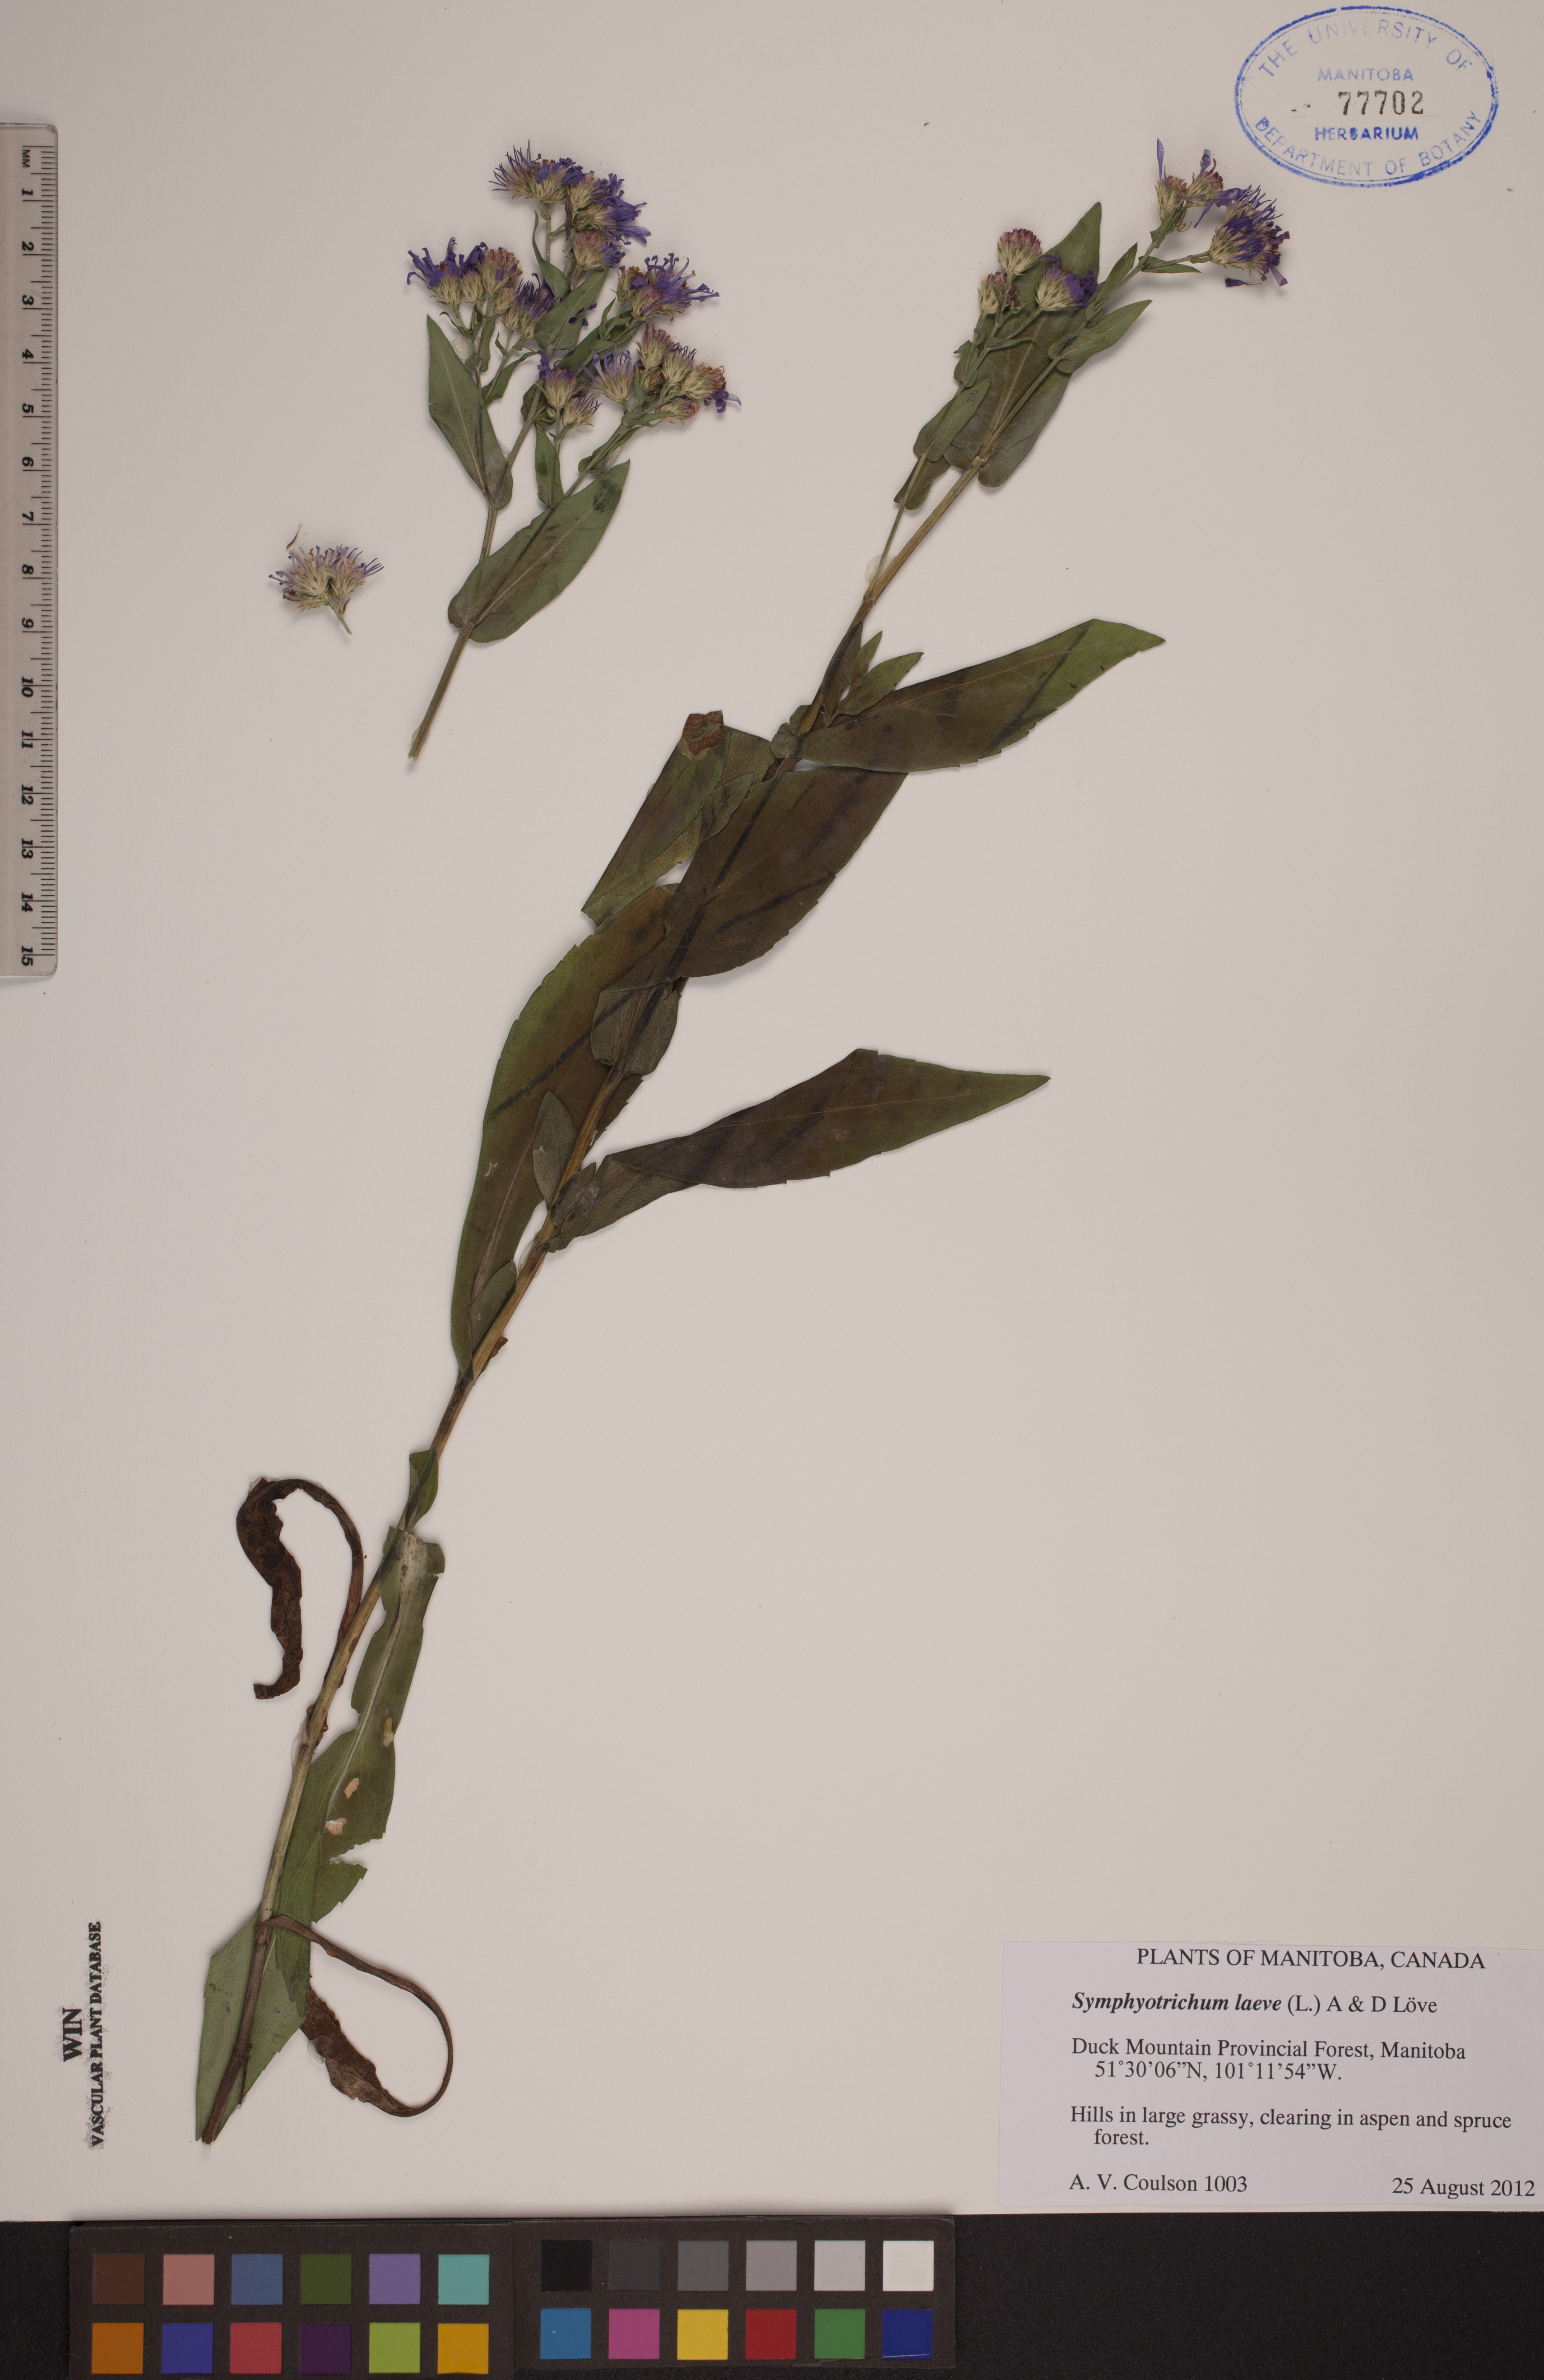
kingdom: Plantae
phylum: Tracheophyta
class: Magnoliopsida
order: Asterales
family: Asteraceae
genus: Symphyotrichum
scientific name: Symphyotrichum laeve
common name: Glaucous aster
